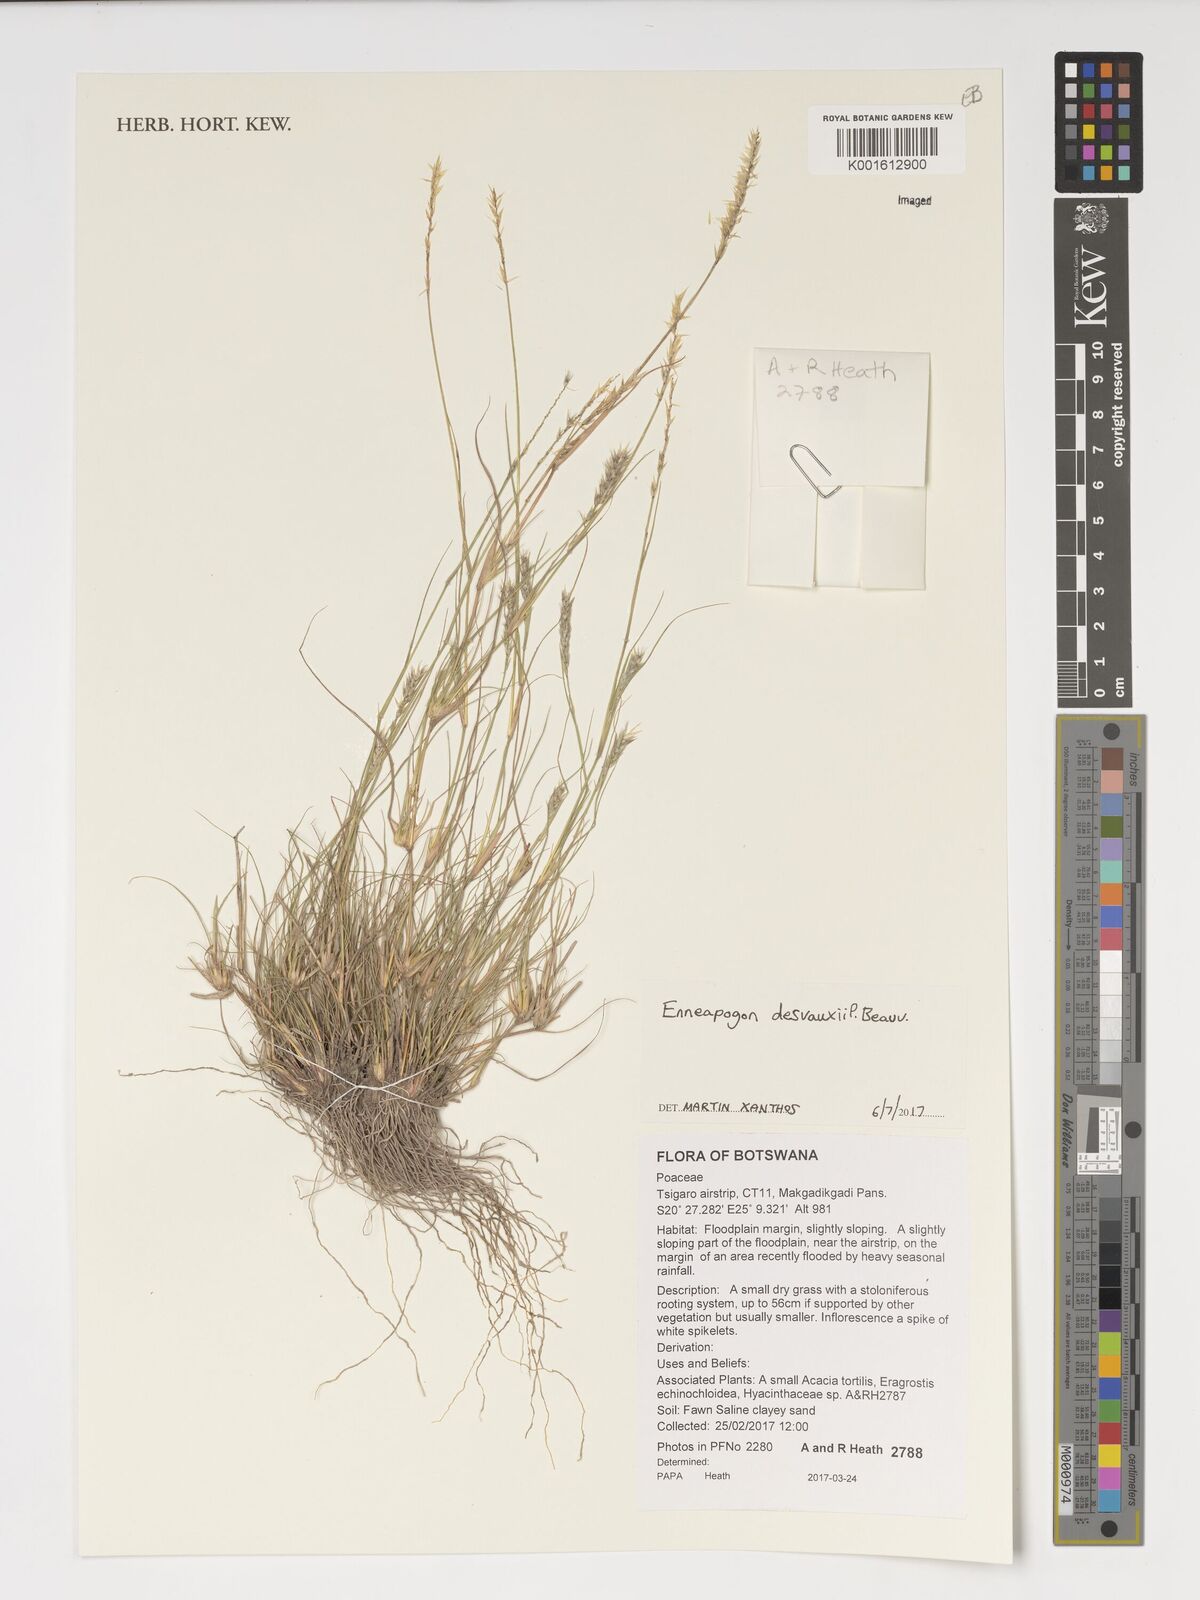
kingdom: Plantae
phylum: Tracheophyta
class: Liliopsida
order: Poales
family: Poaceae
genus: Enneapogon
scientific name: Enneapogon desvauxii
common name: Feather pappus grass
